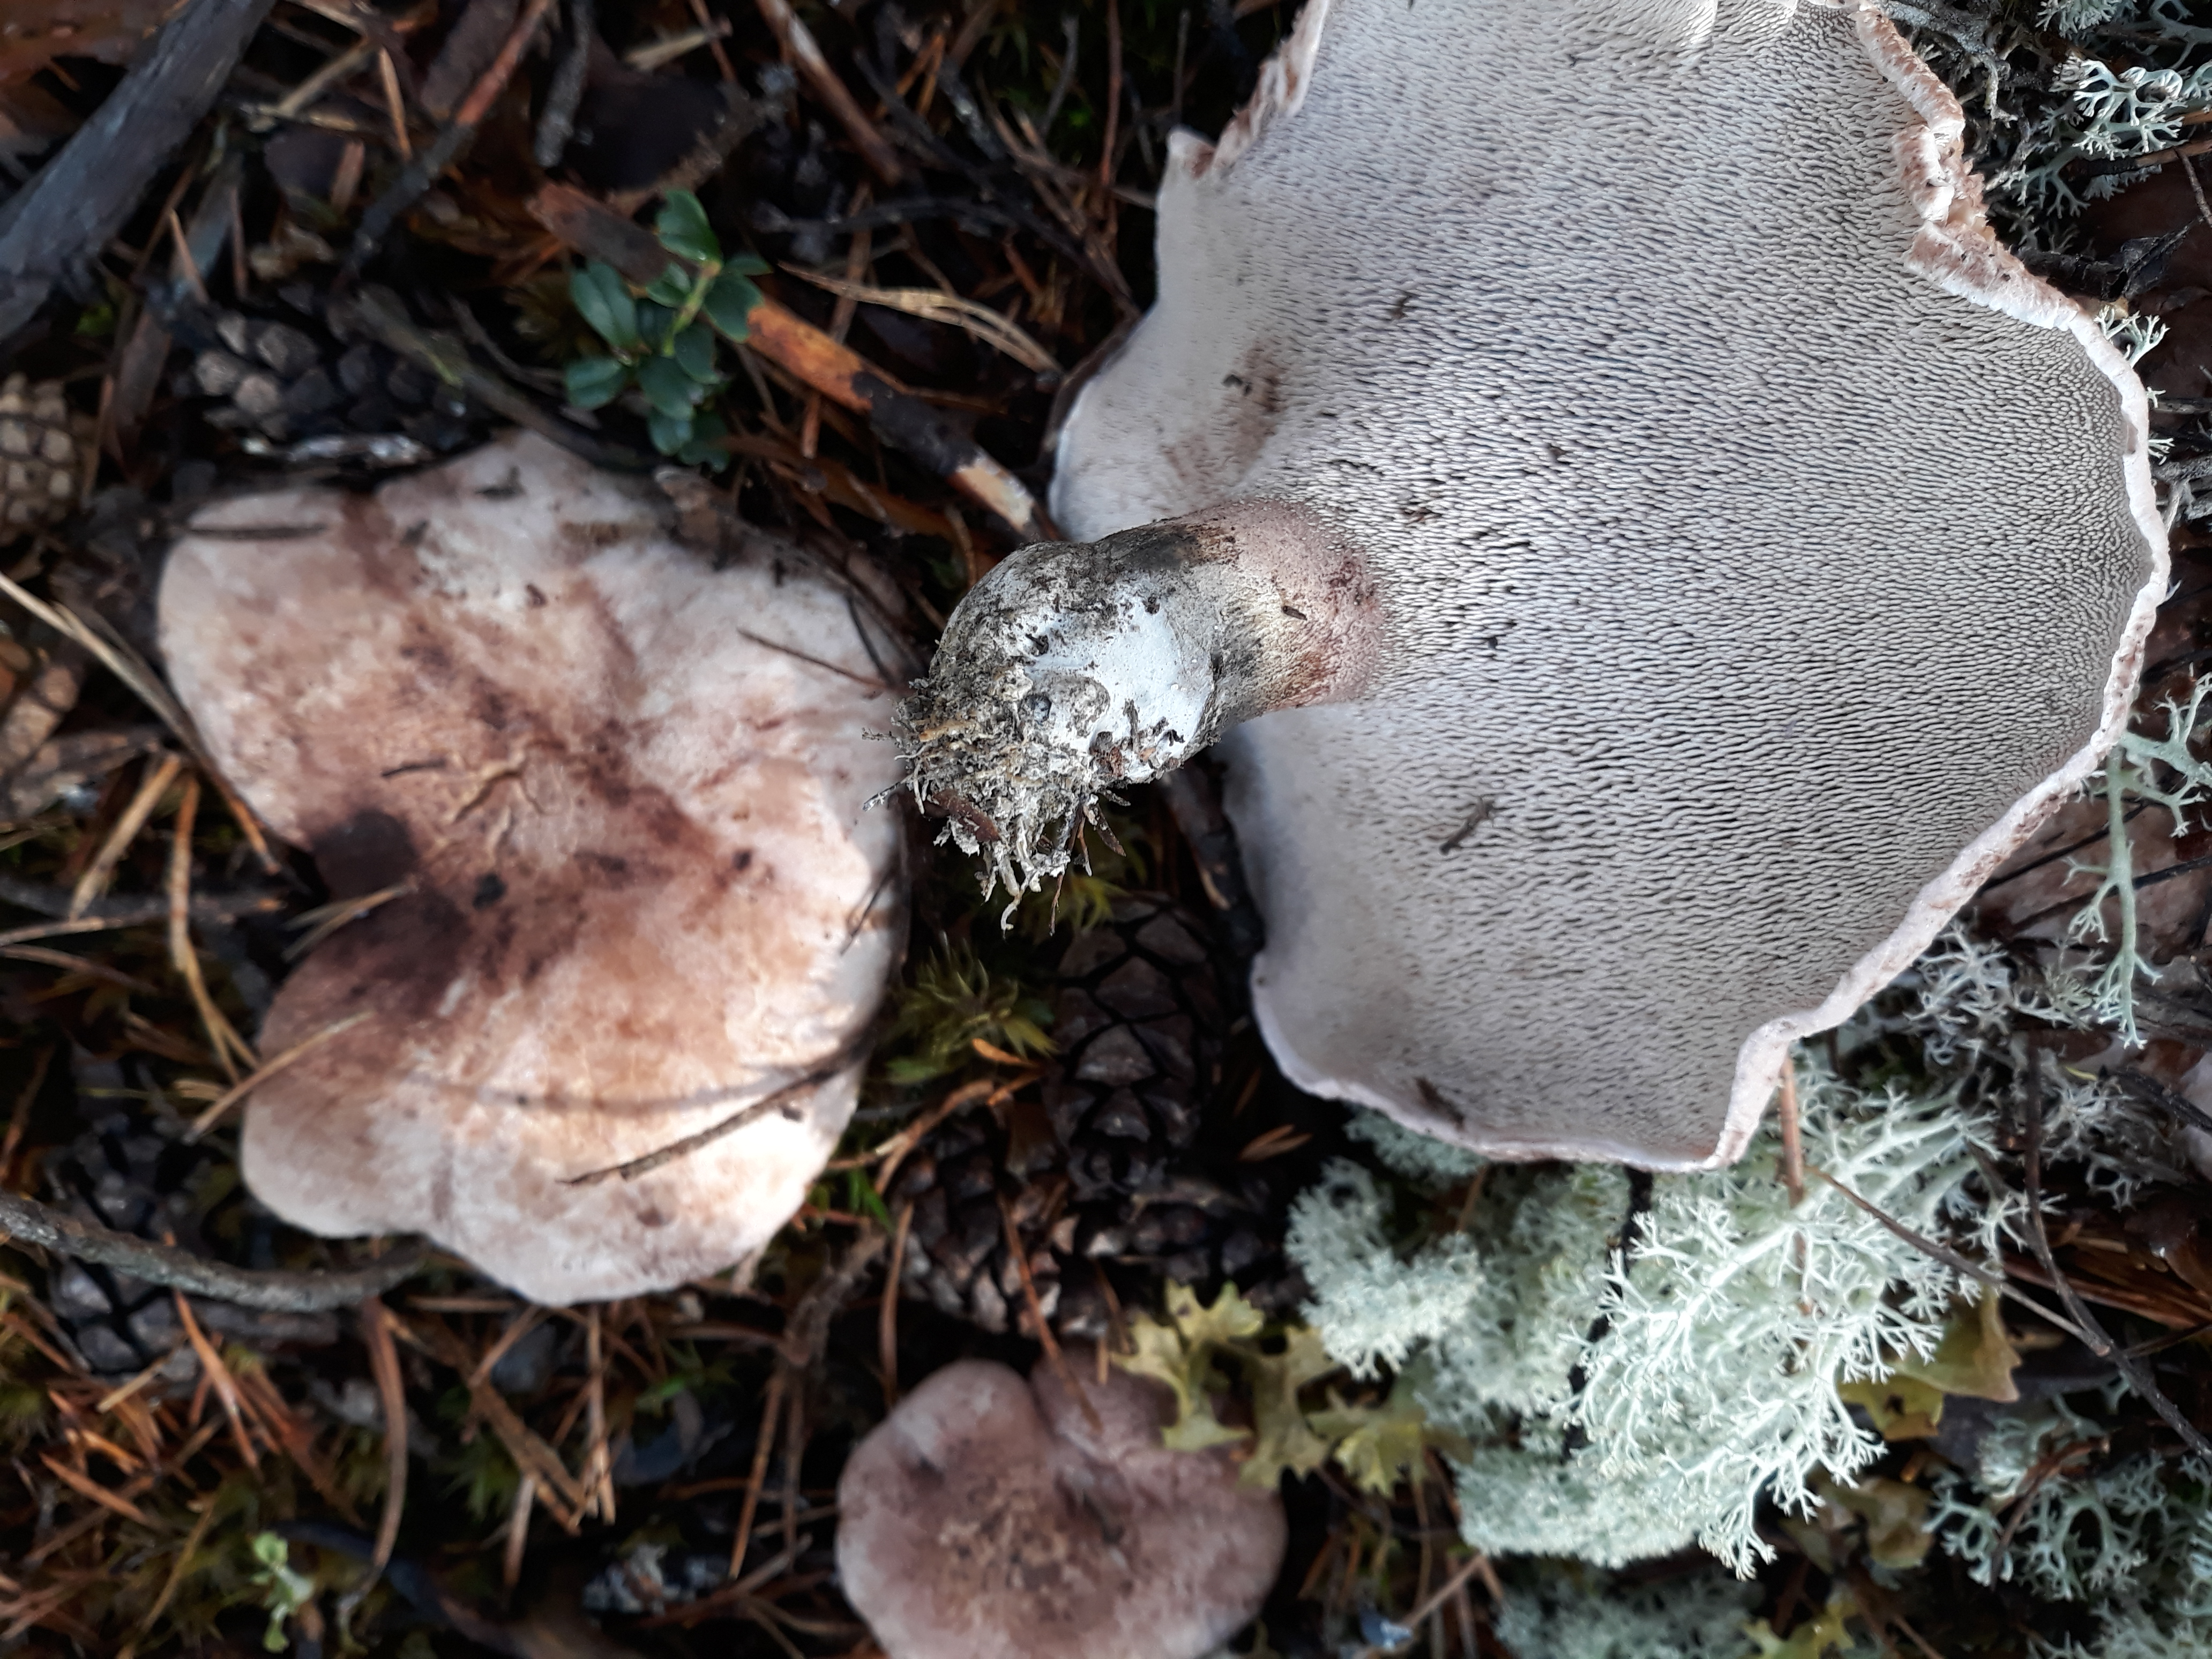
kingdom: Fungi
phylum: Basidiomycota
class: Agaricomycetes
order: Thelephorales
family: Bankeraceae
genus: Hydnellum
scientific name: Hydnellum scabrosum
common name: Bitter tooth
